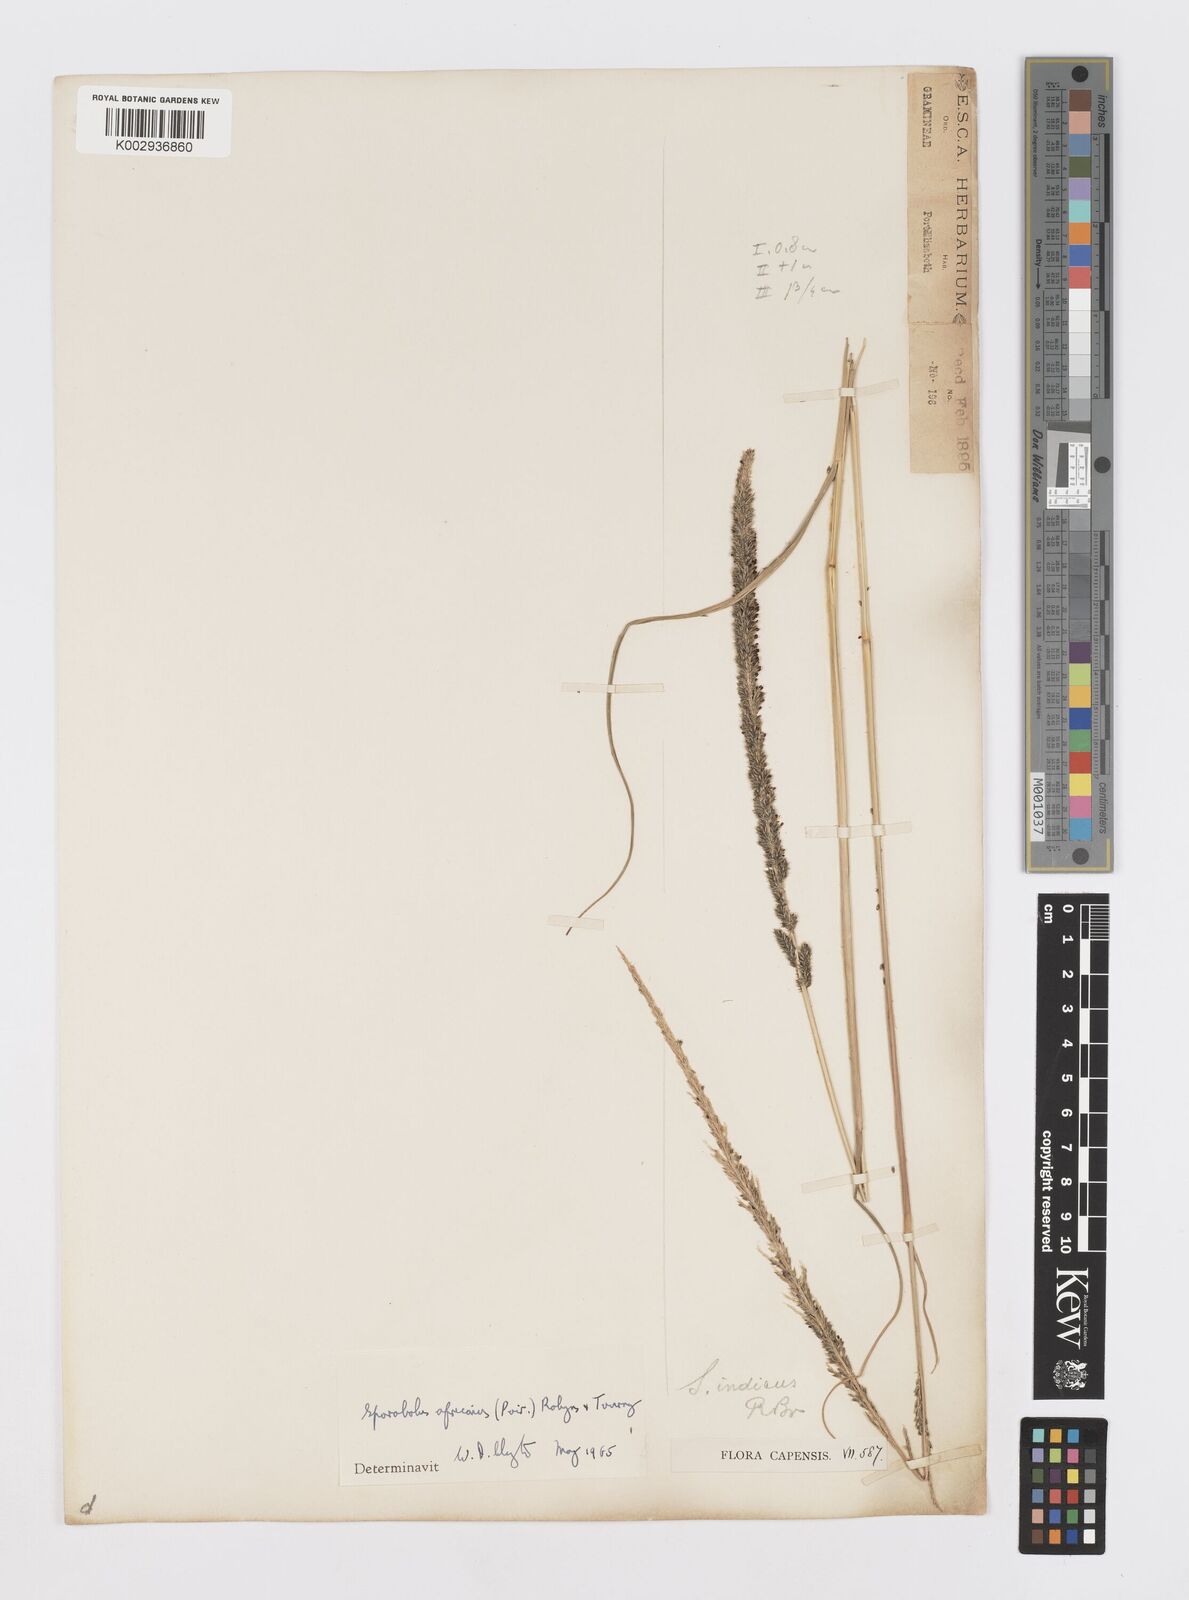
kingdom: Plantae
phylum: Tracheophyta
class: Liliopsida
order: Poales
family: Poaceae
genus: Sporobolus
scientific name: Sporobolus africanus
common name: African dropseed
